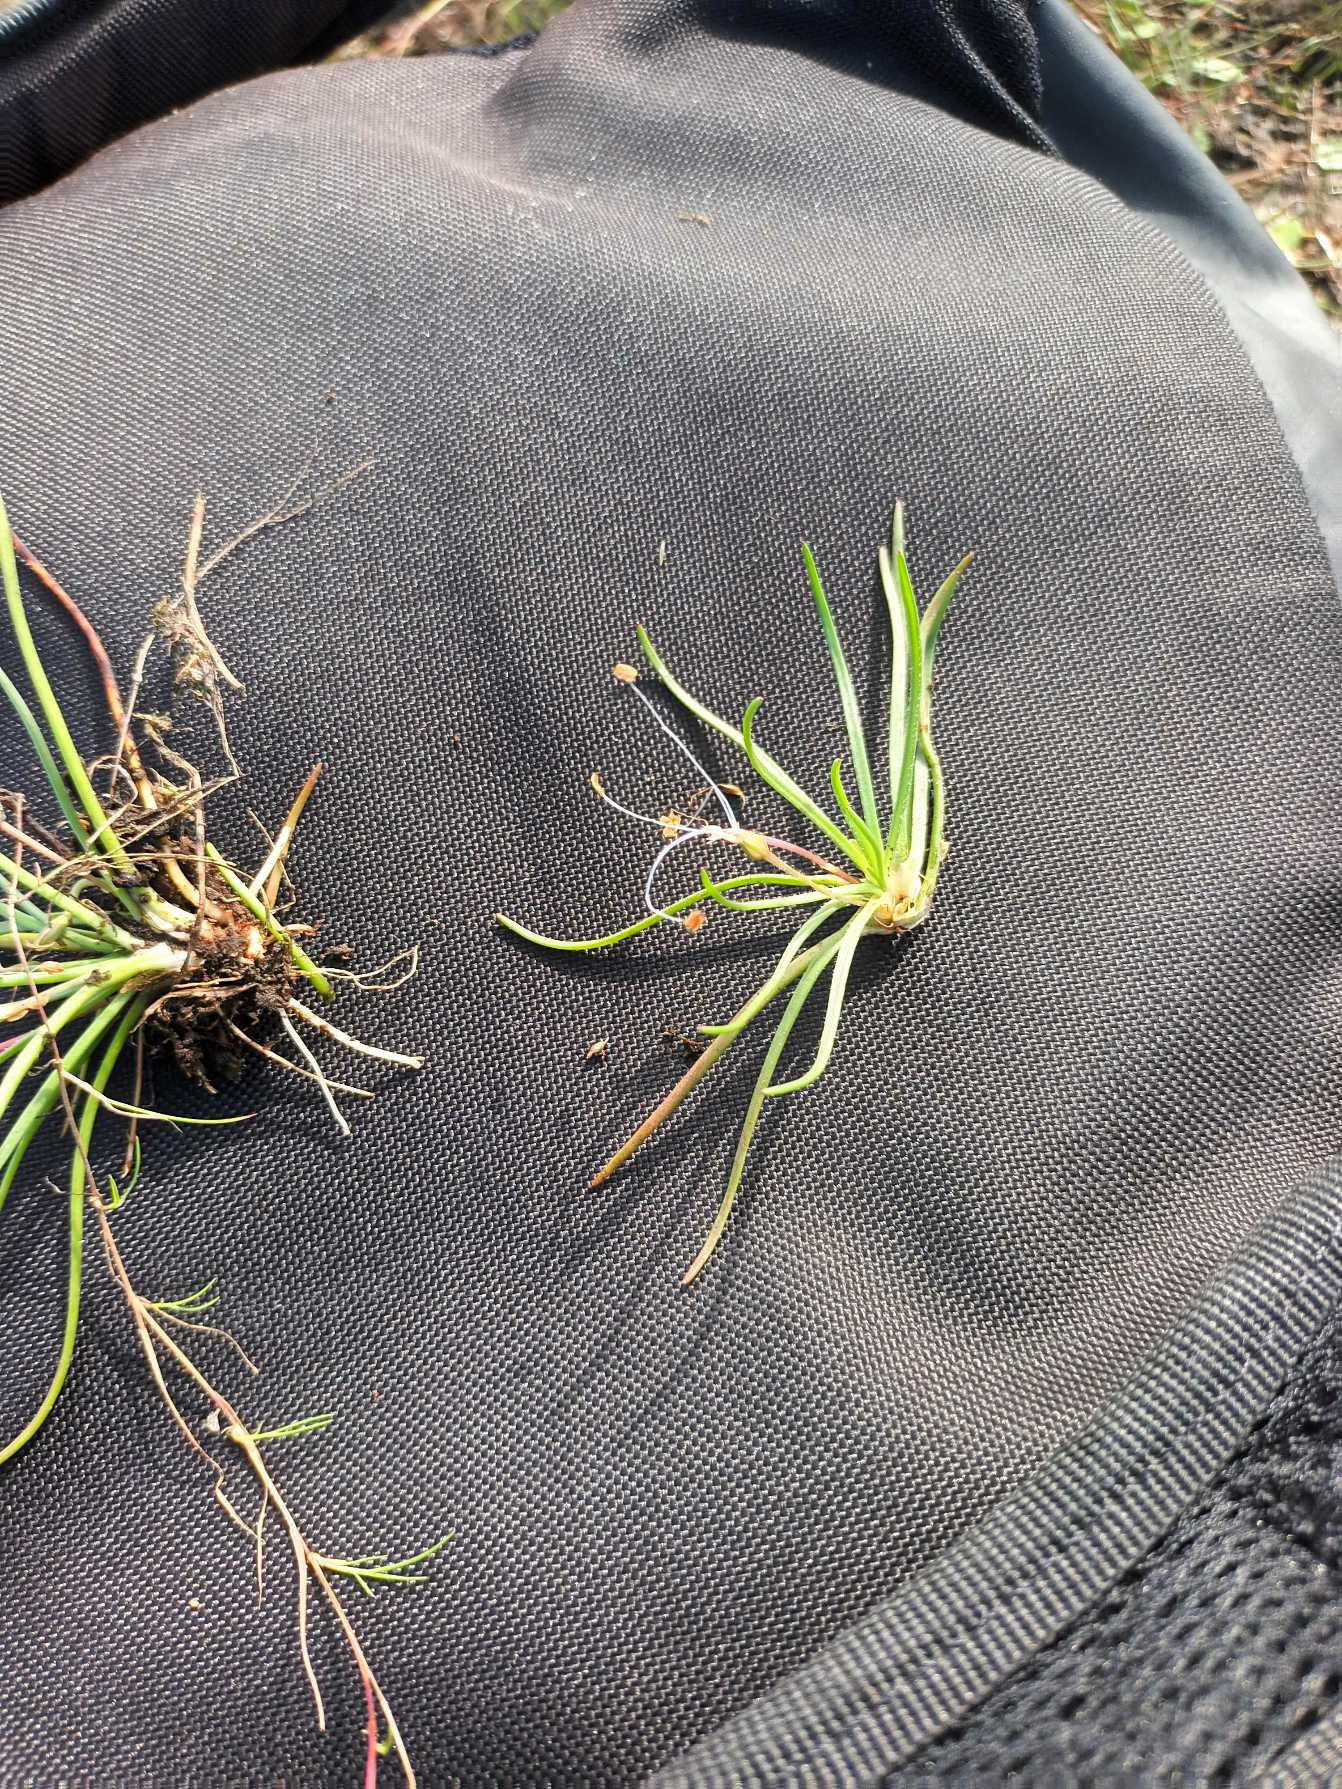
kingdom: Plantae
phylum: Tracheophyta
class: Magnoliopsida
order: Lamiales
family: Plantaginaceae
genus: Littorella
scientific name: Littorella uniflora
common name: Strandbo
